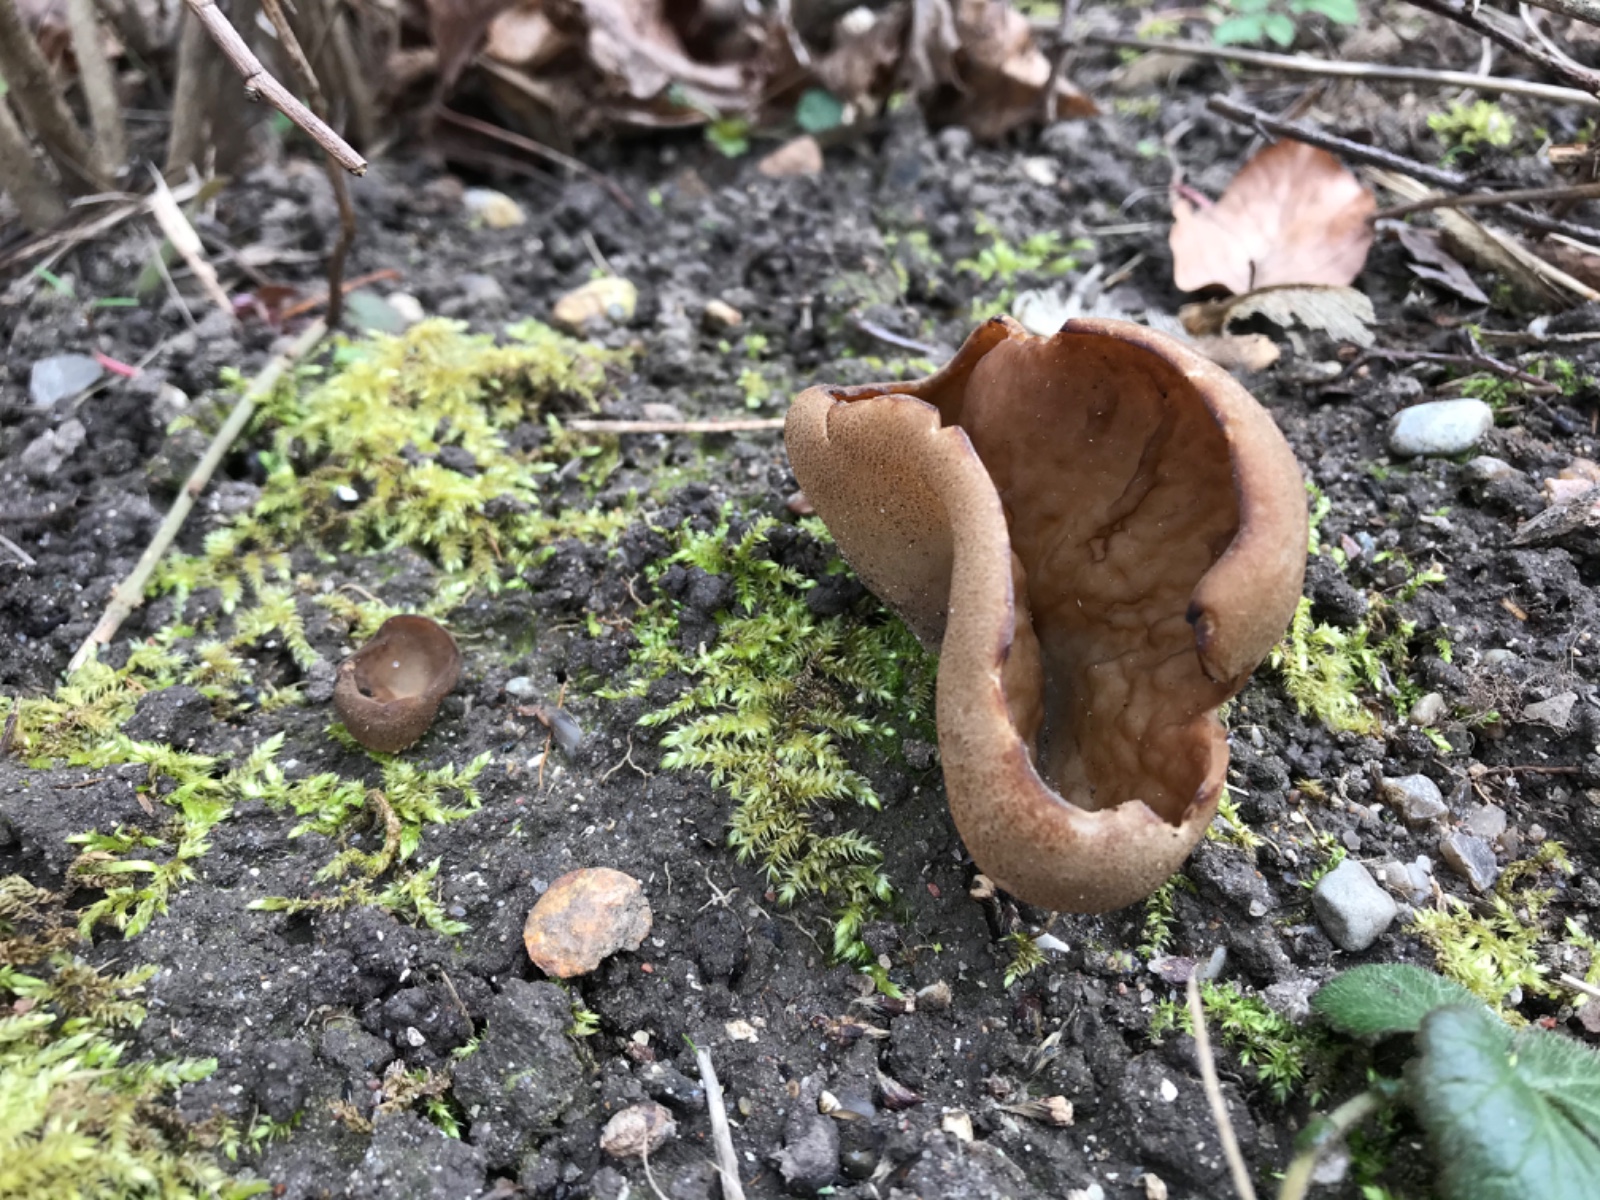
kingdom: Fungi
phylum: Ascomycota
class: Pezizomycetes
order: Pezizales
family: Morchellaceae
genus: Disciotis
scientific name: Disciotis venosa
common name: klor-bægermorkel
